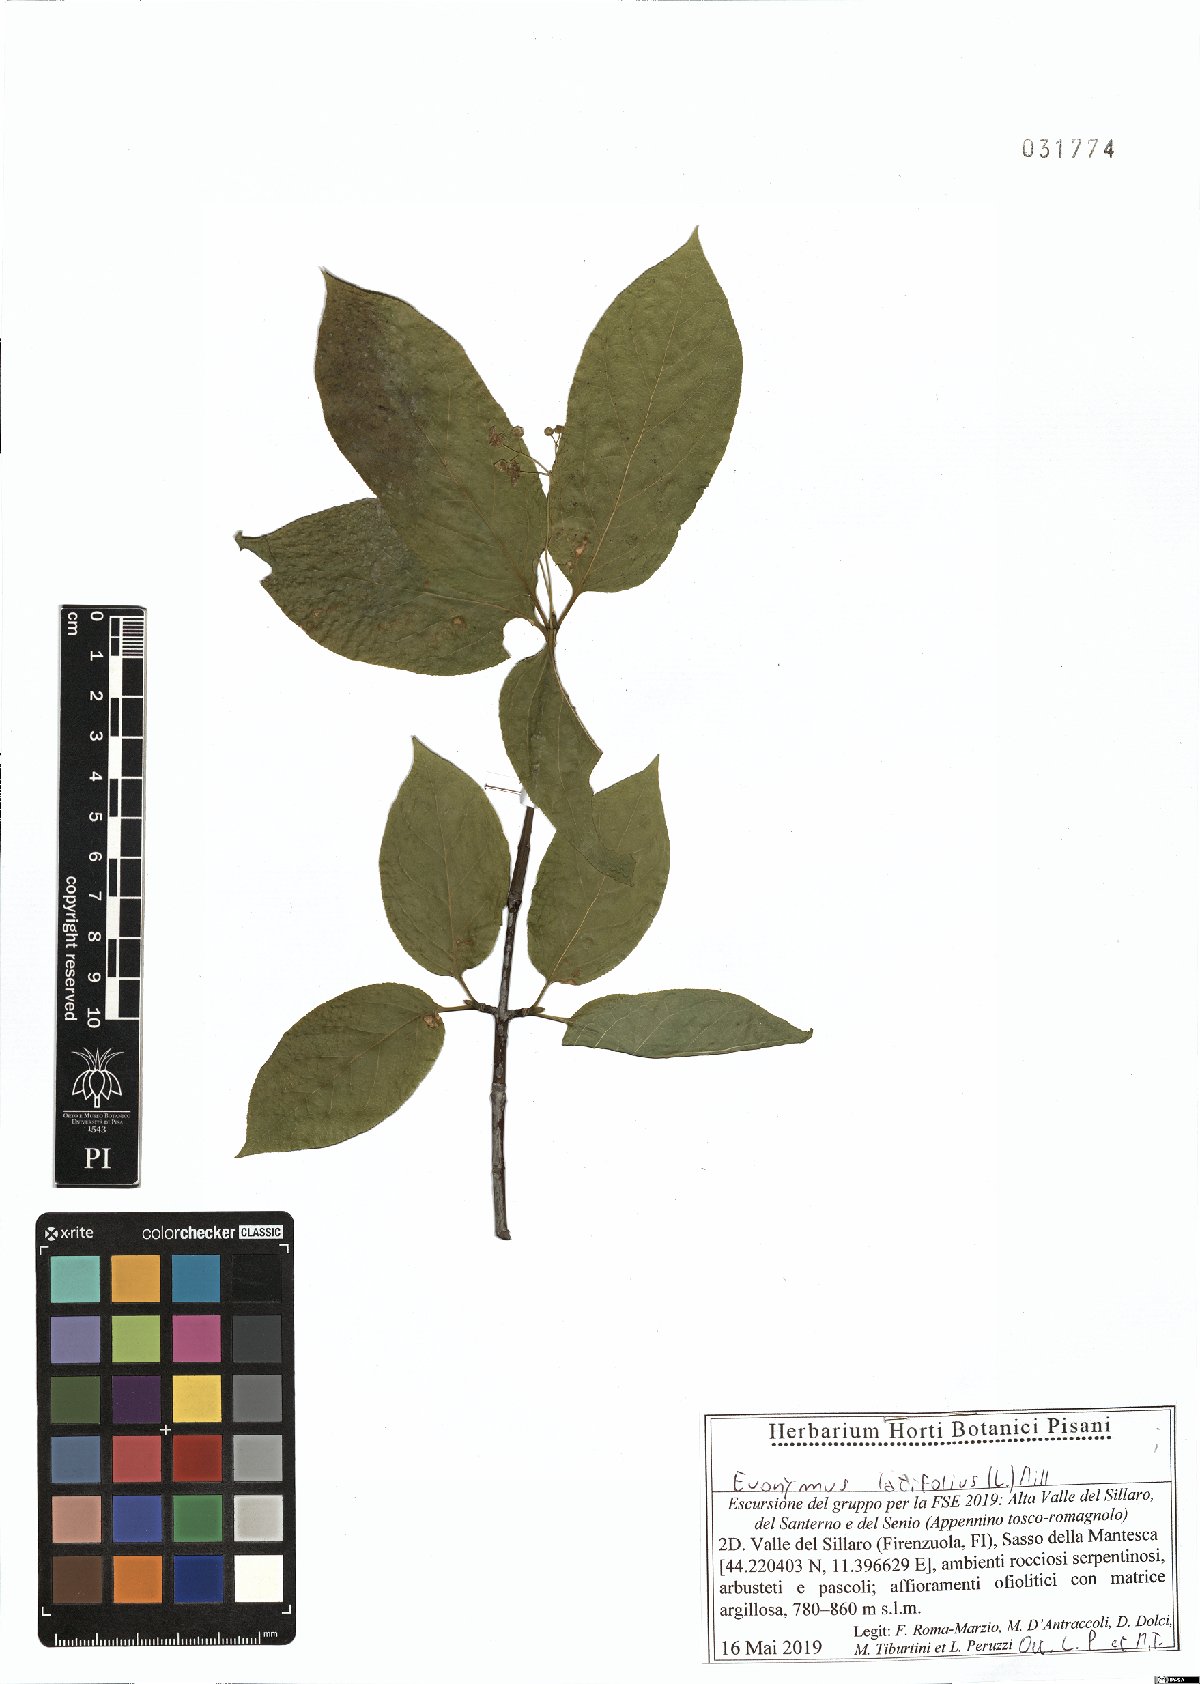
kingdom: Plantae
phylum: Tracheophyta
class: Magnoliopsida
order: Celastrales
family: Celastraceae
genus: Euonymus
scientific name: Euonymus latifolius
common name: Large-leaved spindle
